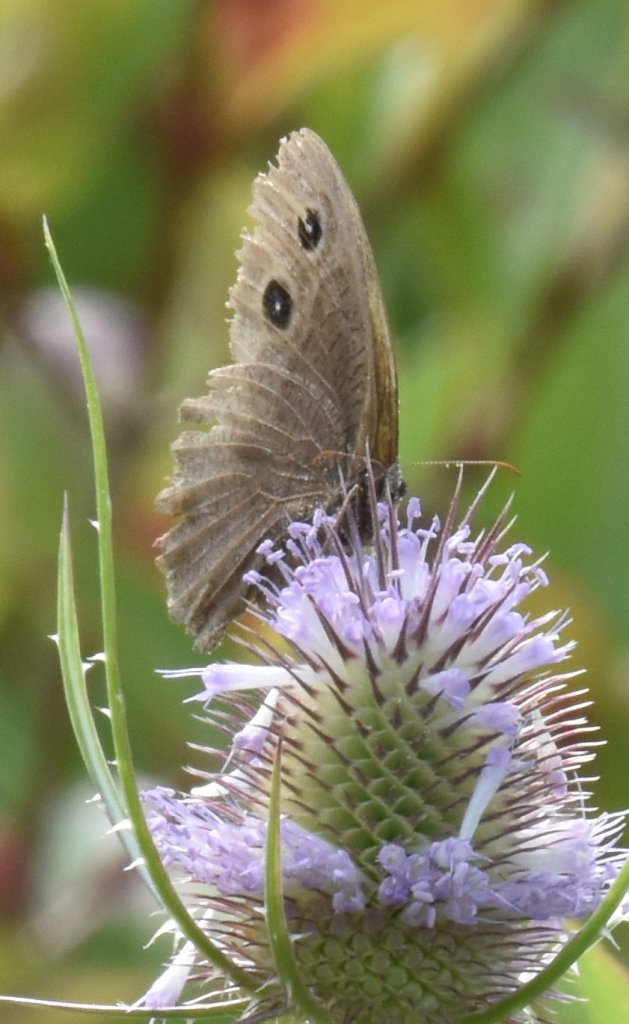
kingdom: Animalia
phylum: Arthropoda
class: Insecta
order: Lepidoptera
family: Nymphalidae
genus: Cercyonis
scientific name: Cercyonis pegala
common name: Common Wood-Nymph
